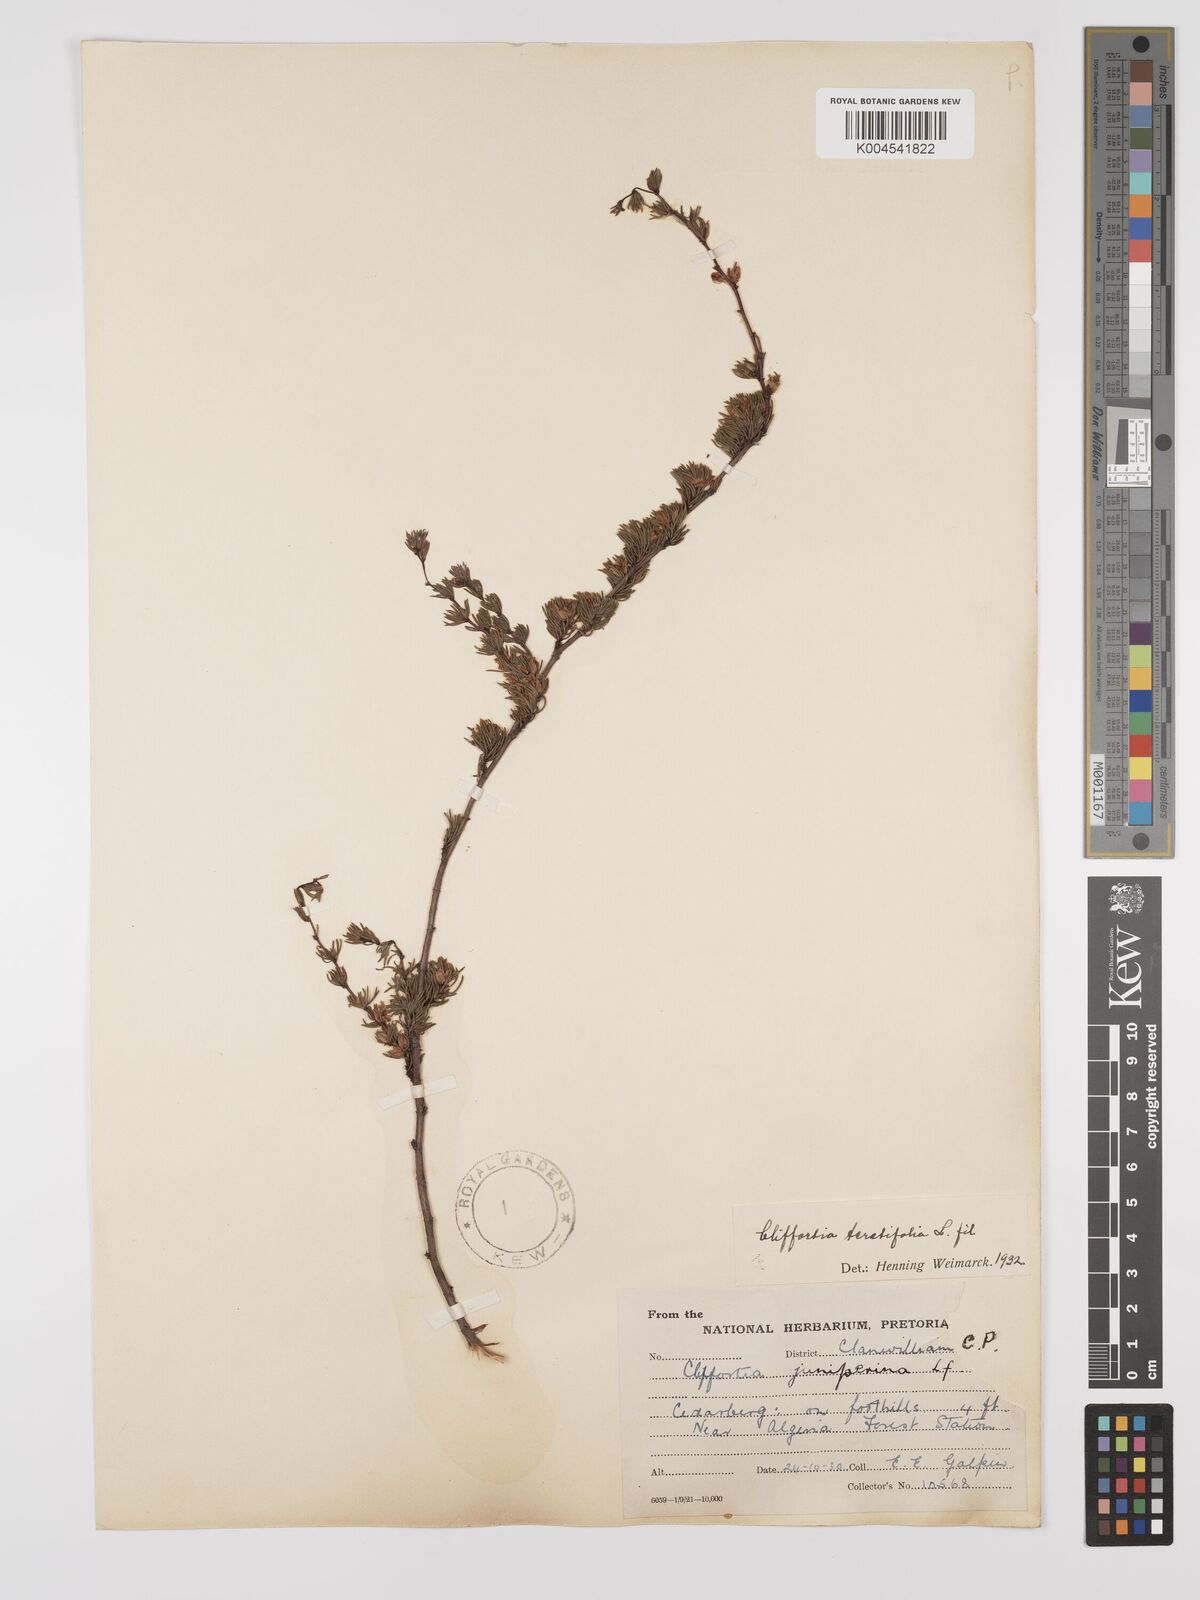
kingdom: Plantae
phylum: Tracheophyta
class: Magnoliopsida
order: Rosales
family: Rosaceae
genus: Cliffortia
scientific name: Cliffortia teretifolia
